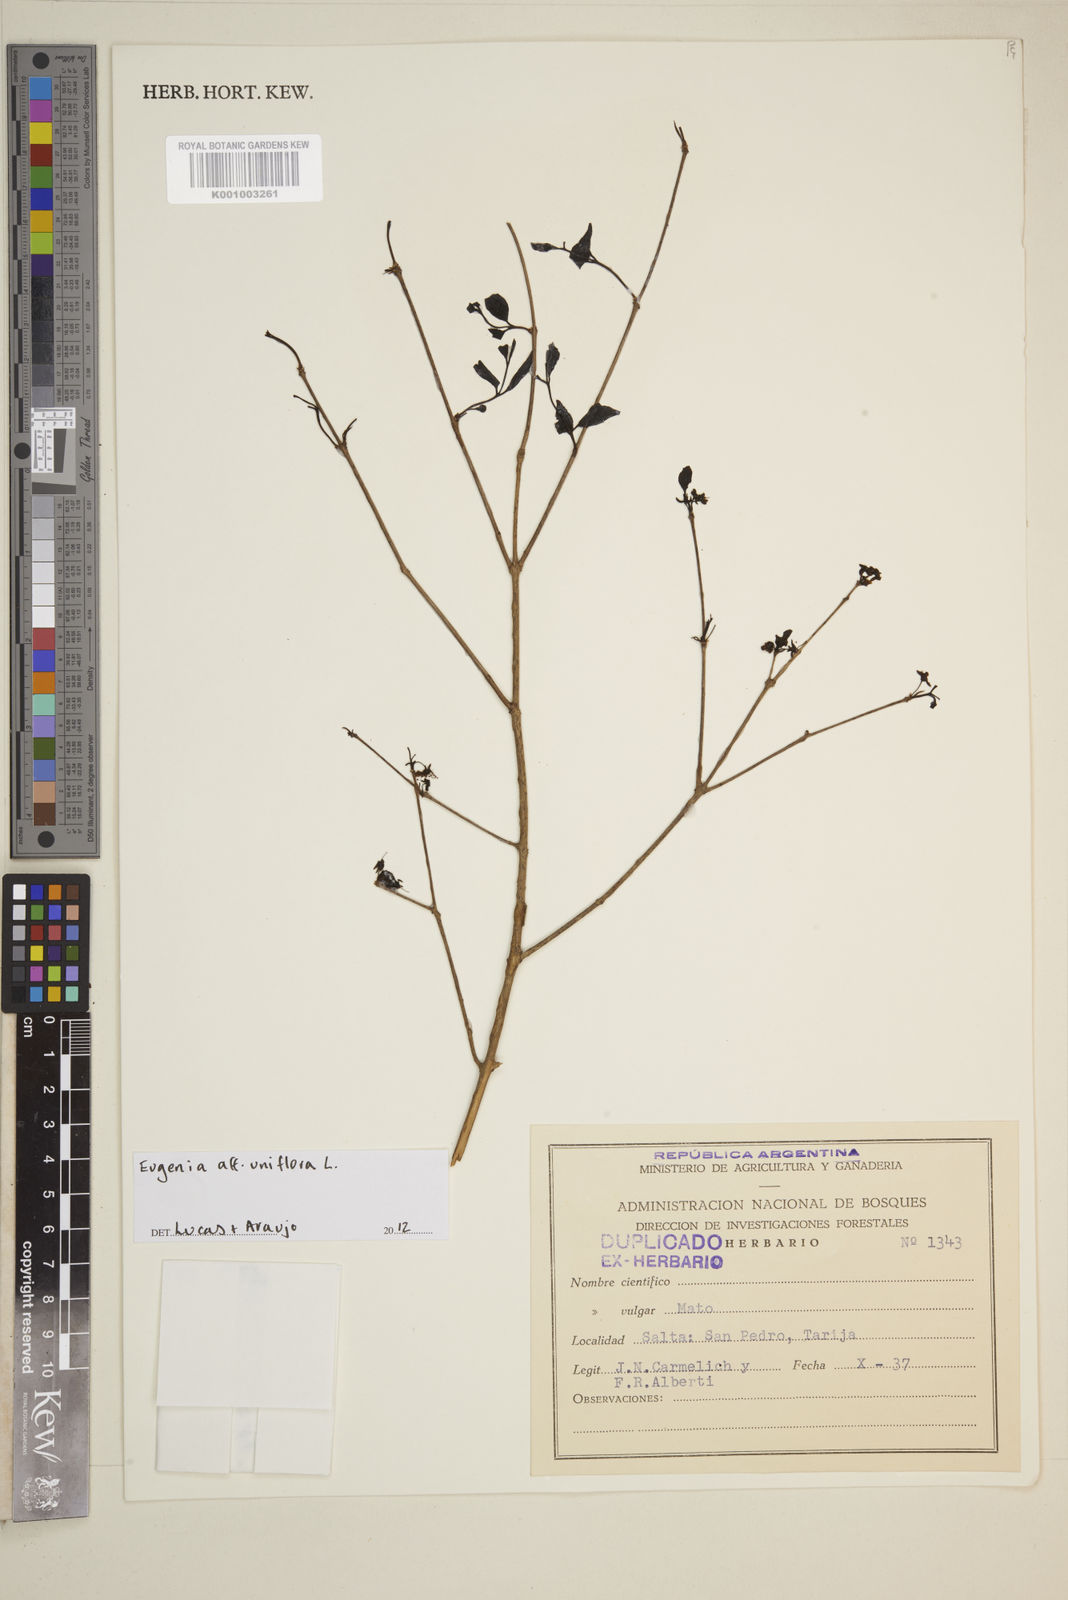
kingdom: Plantae
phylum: Tracheophyta
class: Magnoliopsida
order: Myrtales
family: Myrtaceae
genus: Eugenia
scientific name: Eugenia uniflora
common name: Surinam cherry
